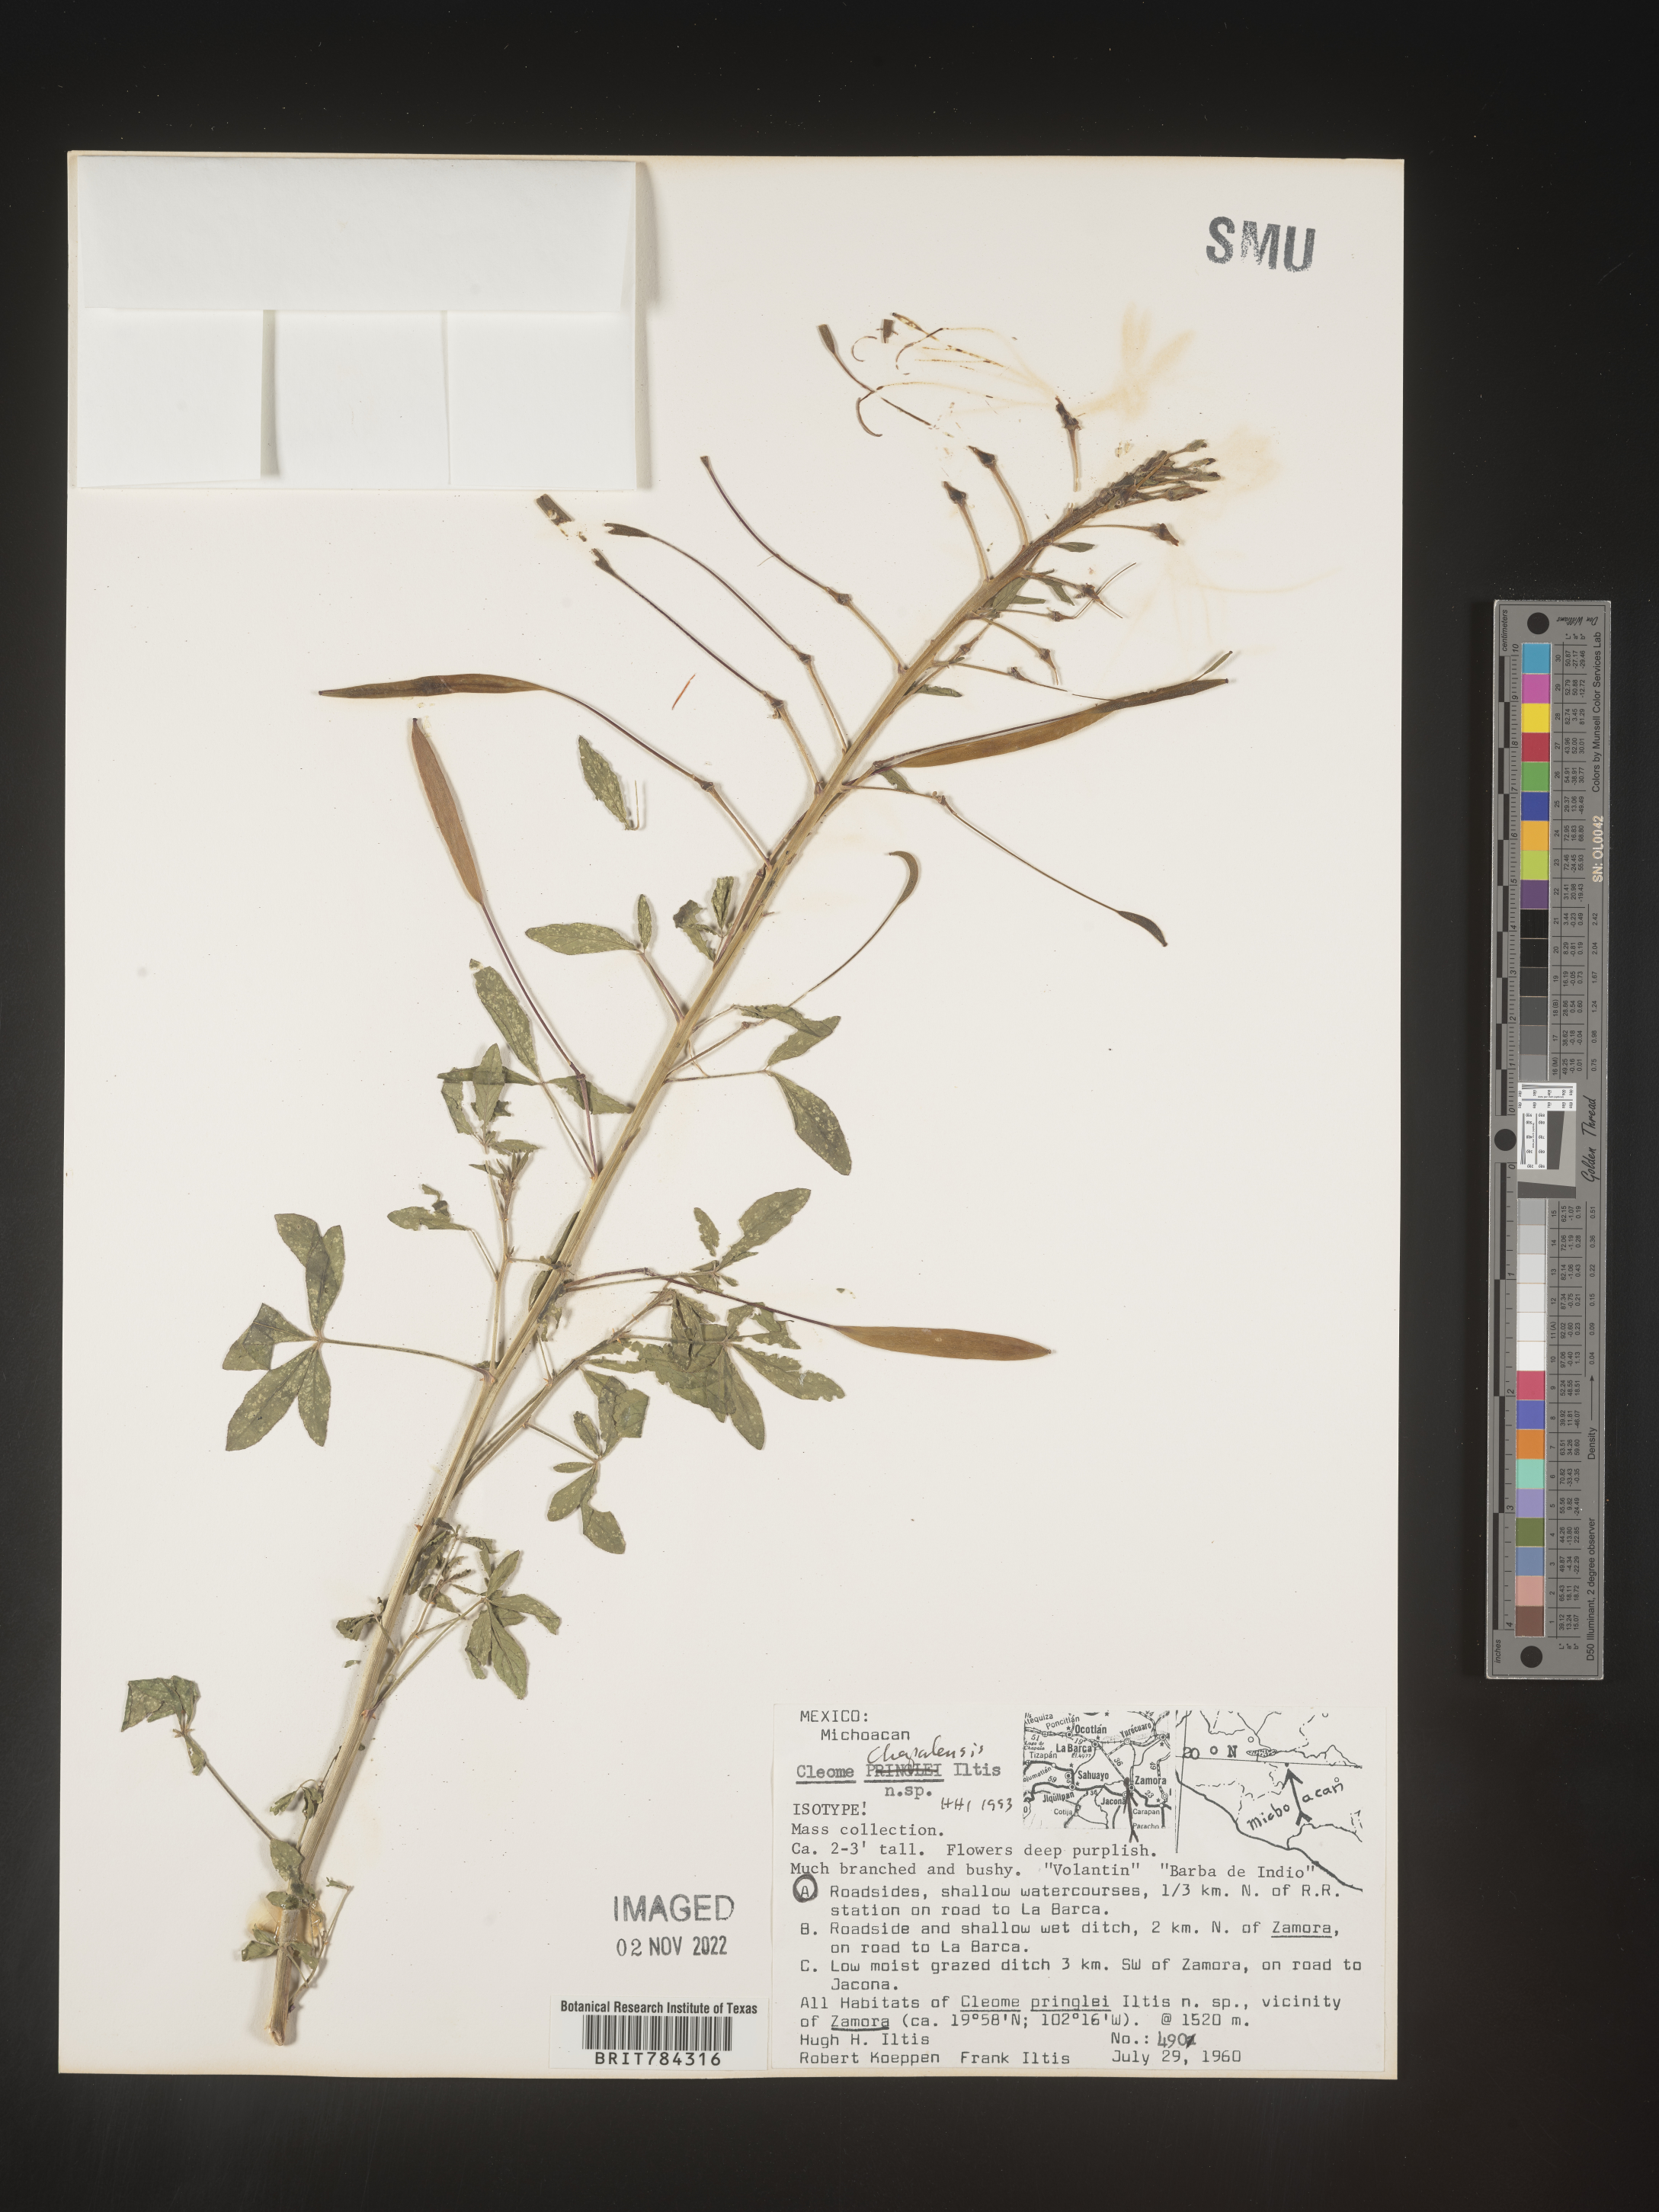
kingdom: Plantae
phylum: Tracheophyta
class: Magnoliopsida
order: Brassicales
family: Cleomaceae
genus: Cleome
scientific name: Cleome
